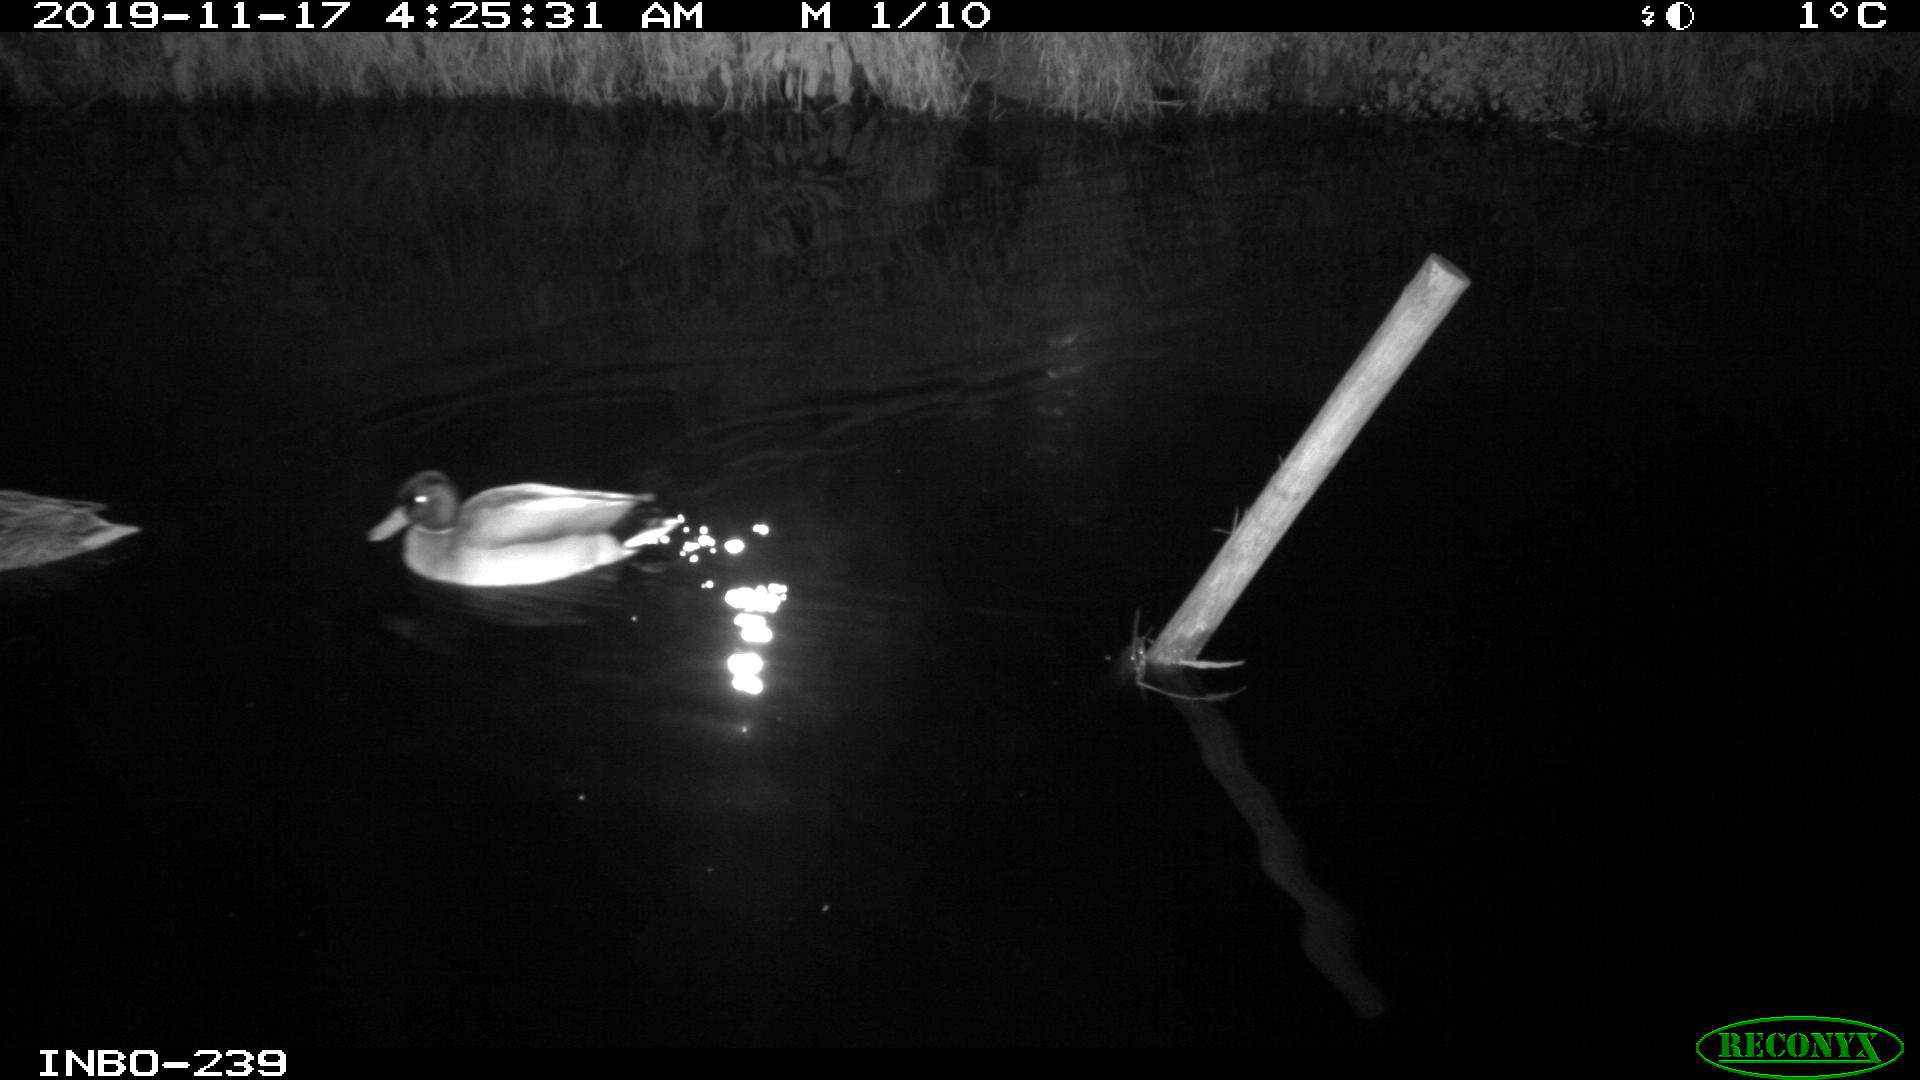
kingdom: Animalia
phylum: Chordata
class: Aves
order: Anseriformes
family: Anatidae
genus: Anas
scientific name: Anas platyrhynchos
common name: Mallard
